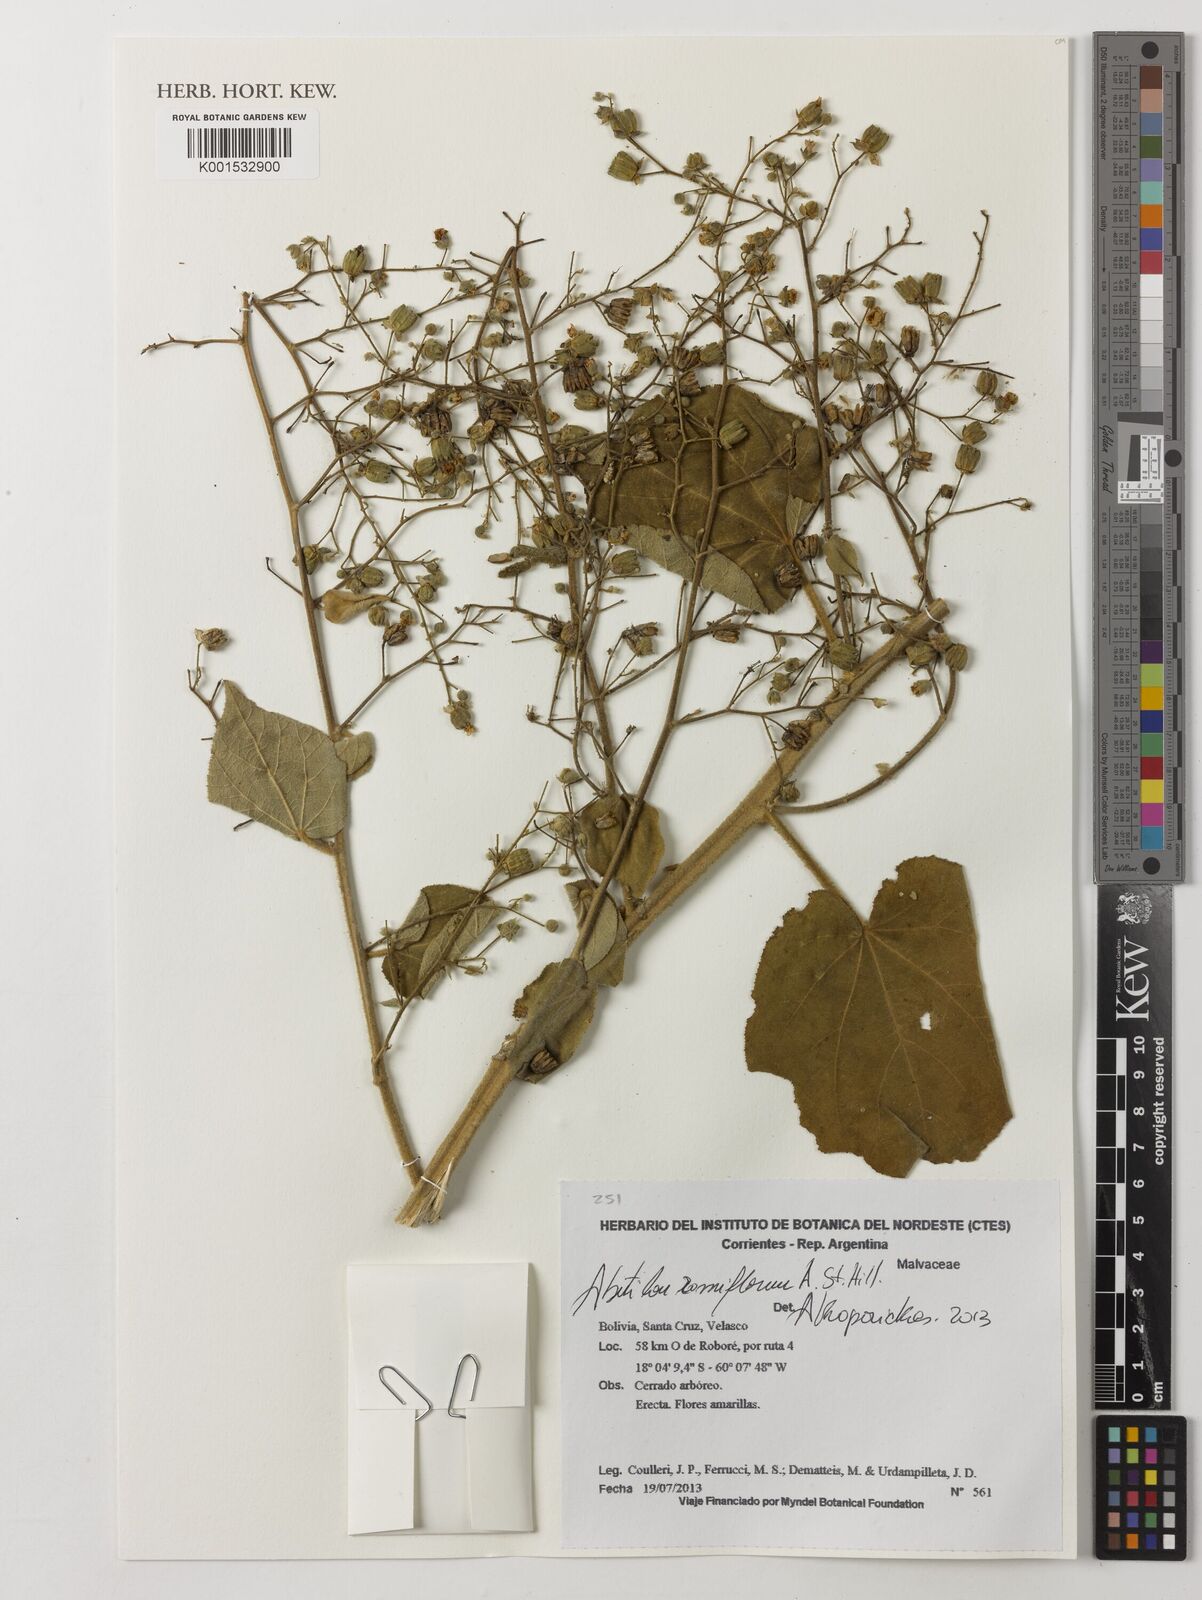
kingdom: Plantae
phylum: Tracheophyta
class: Magnoliopsida
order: Malvales
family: Malvaceae
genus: Abutilon
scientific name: Abutilon ramiflorum
